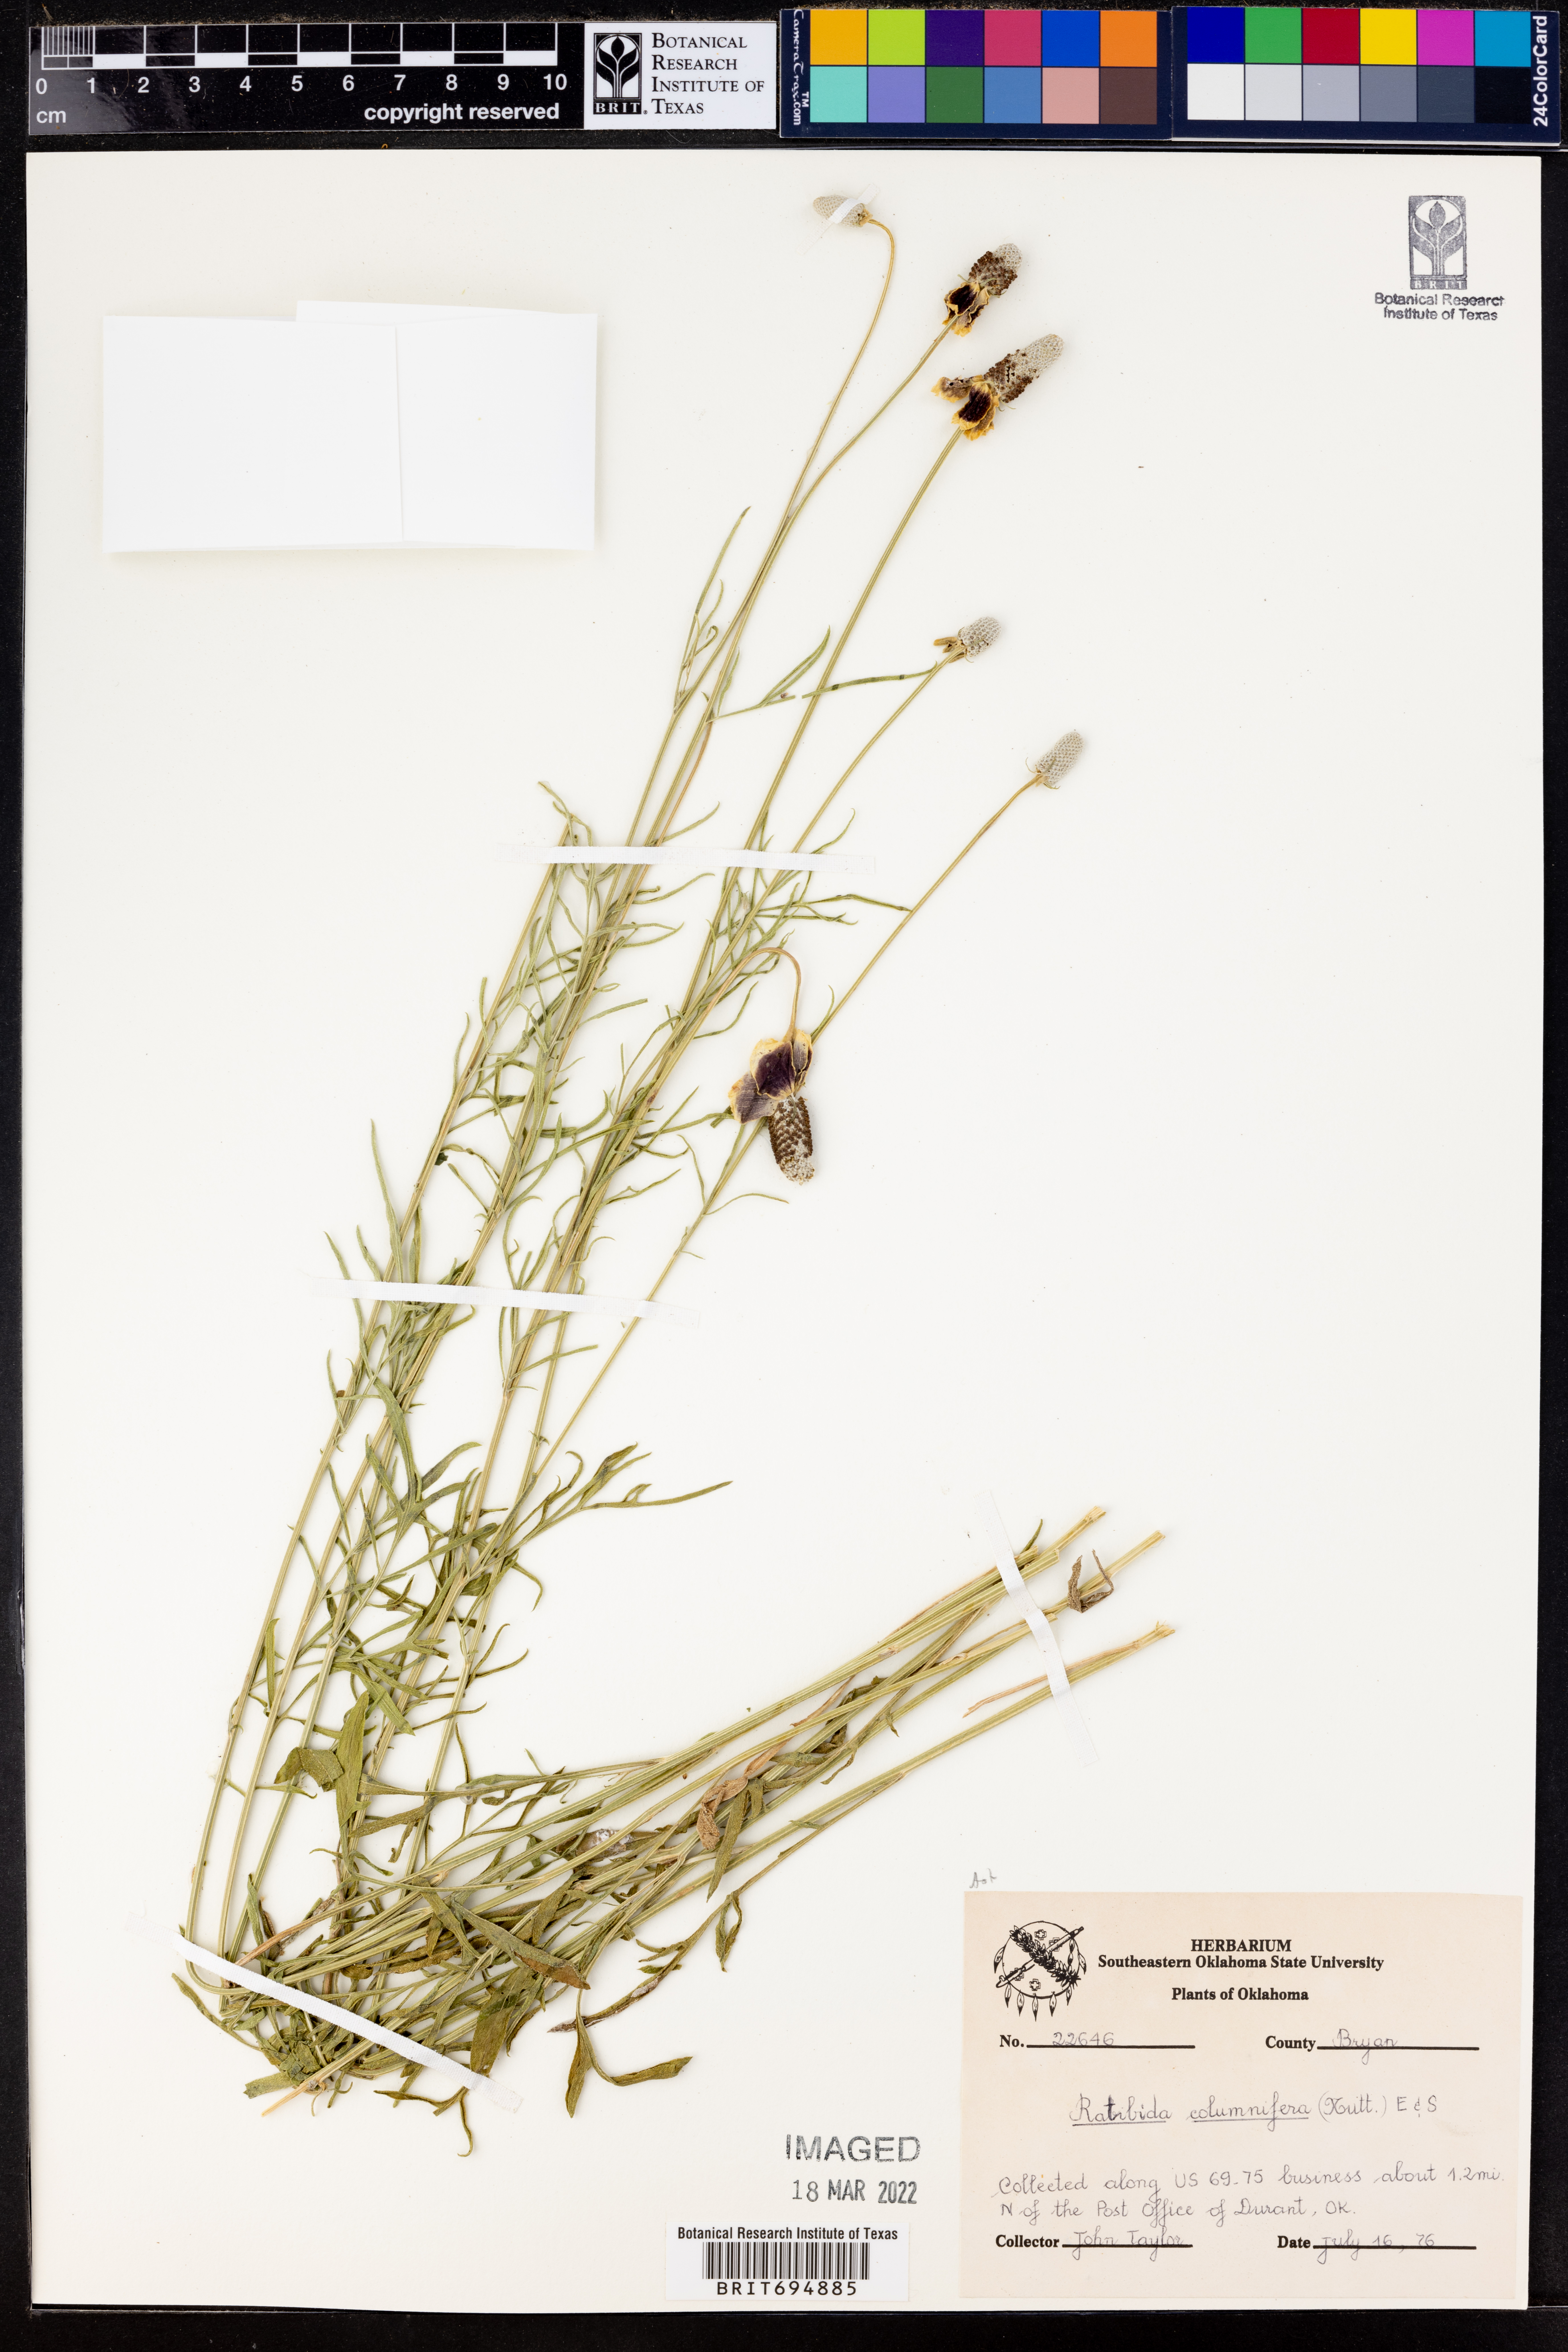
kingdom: Plantae
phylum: Tracheophyta
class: Magnoliopsida
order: Asterales
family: Asteraceae
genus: Ratibida
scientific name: Ratibida columnifera
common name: Prairie coneflower
